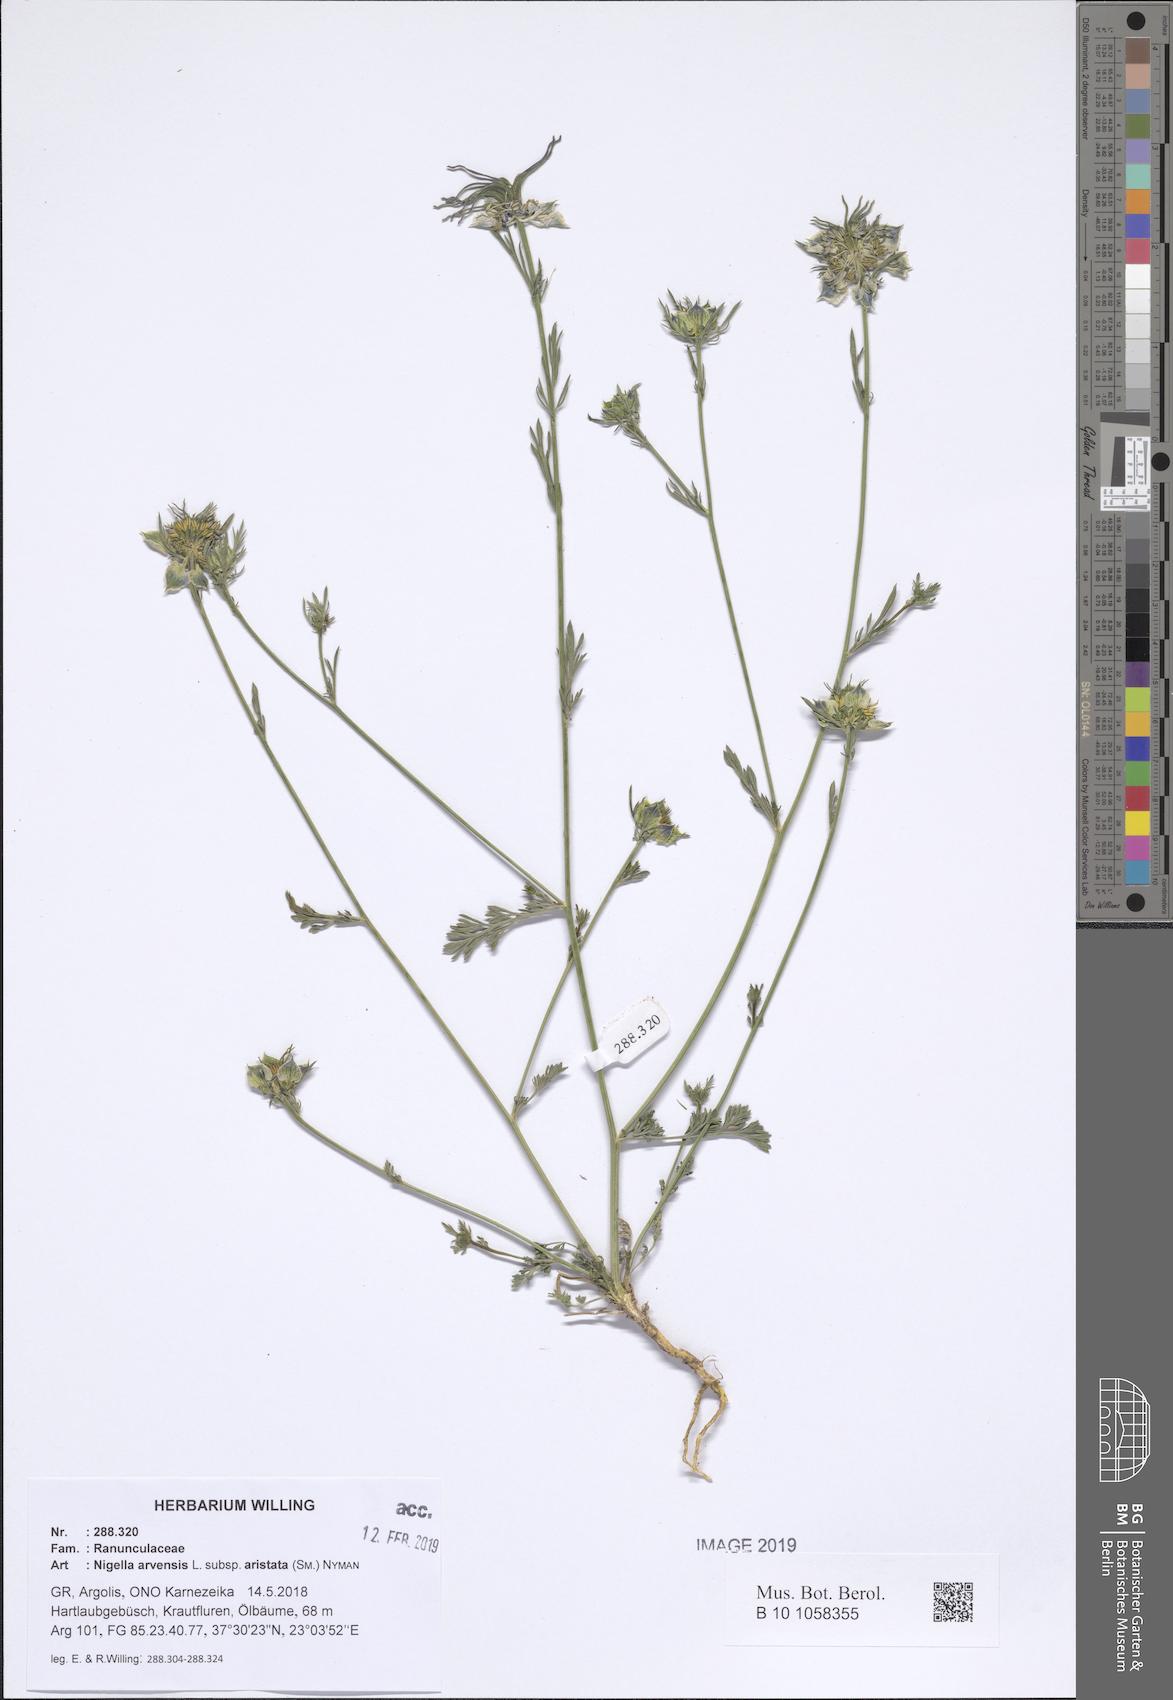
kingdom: Plantae
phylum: Tracheophyta
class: Magnoliopsida
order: Ranunculales
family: Ranunculaceae
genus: Nigella
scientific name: Nigella arvensis
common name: Wild fennel-flower
